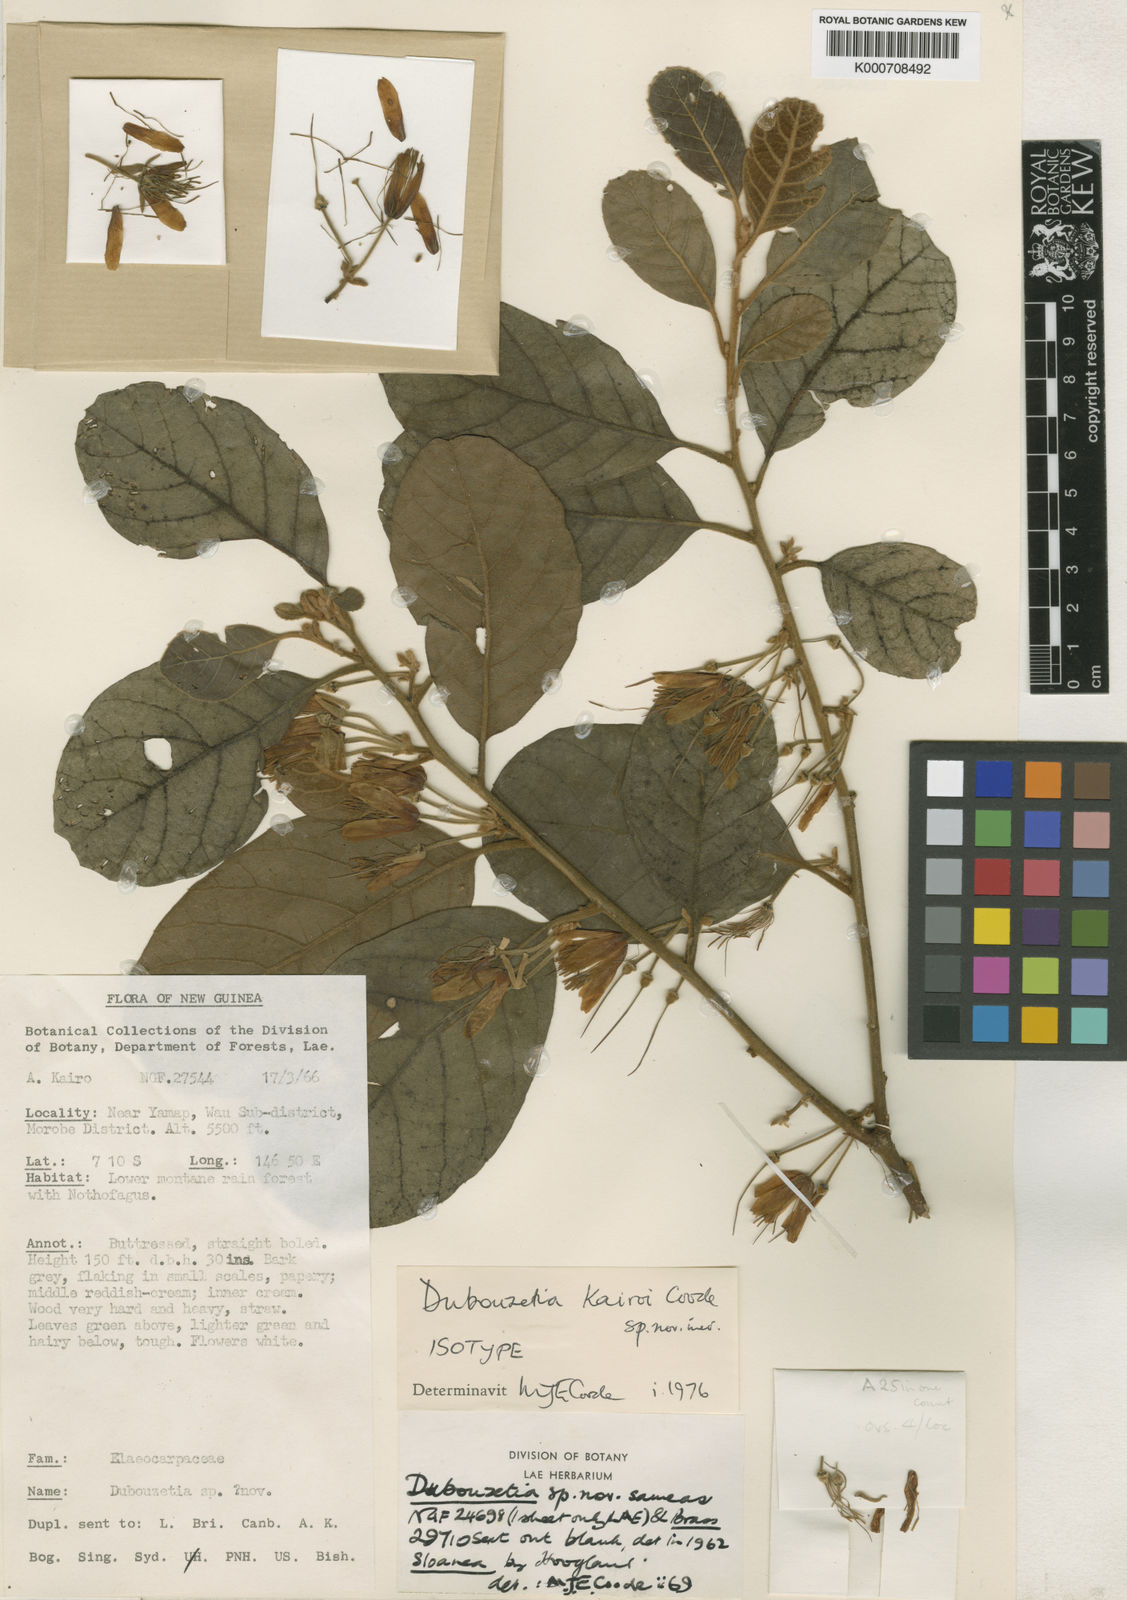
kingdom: Plantae
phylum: Tracheophyta
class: Magnoliopsida
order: Oxalidales
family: Elaeocarpaceae
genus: Dubouzetia
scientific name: Dubouzetia kairoi
